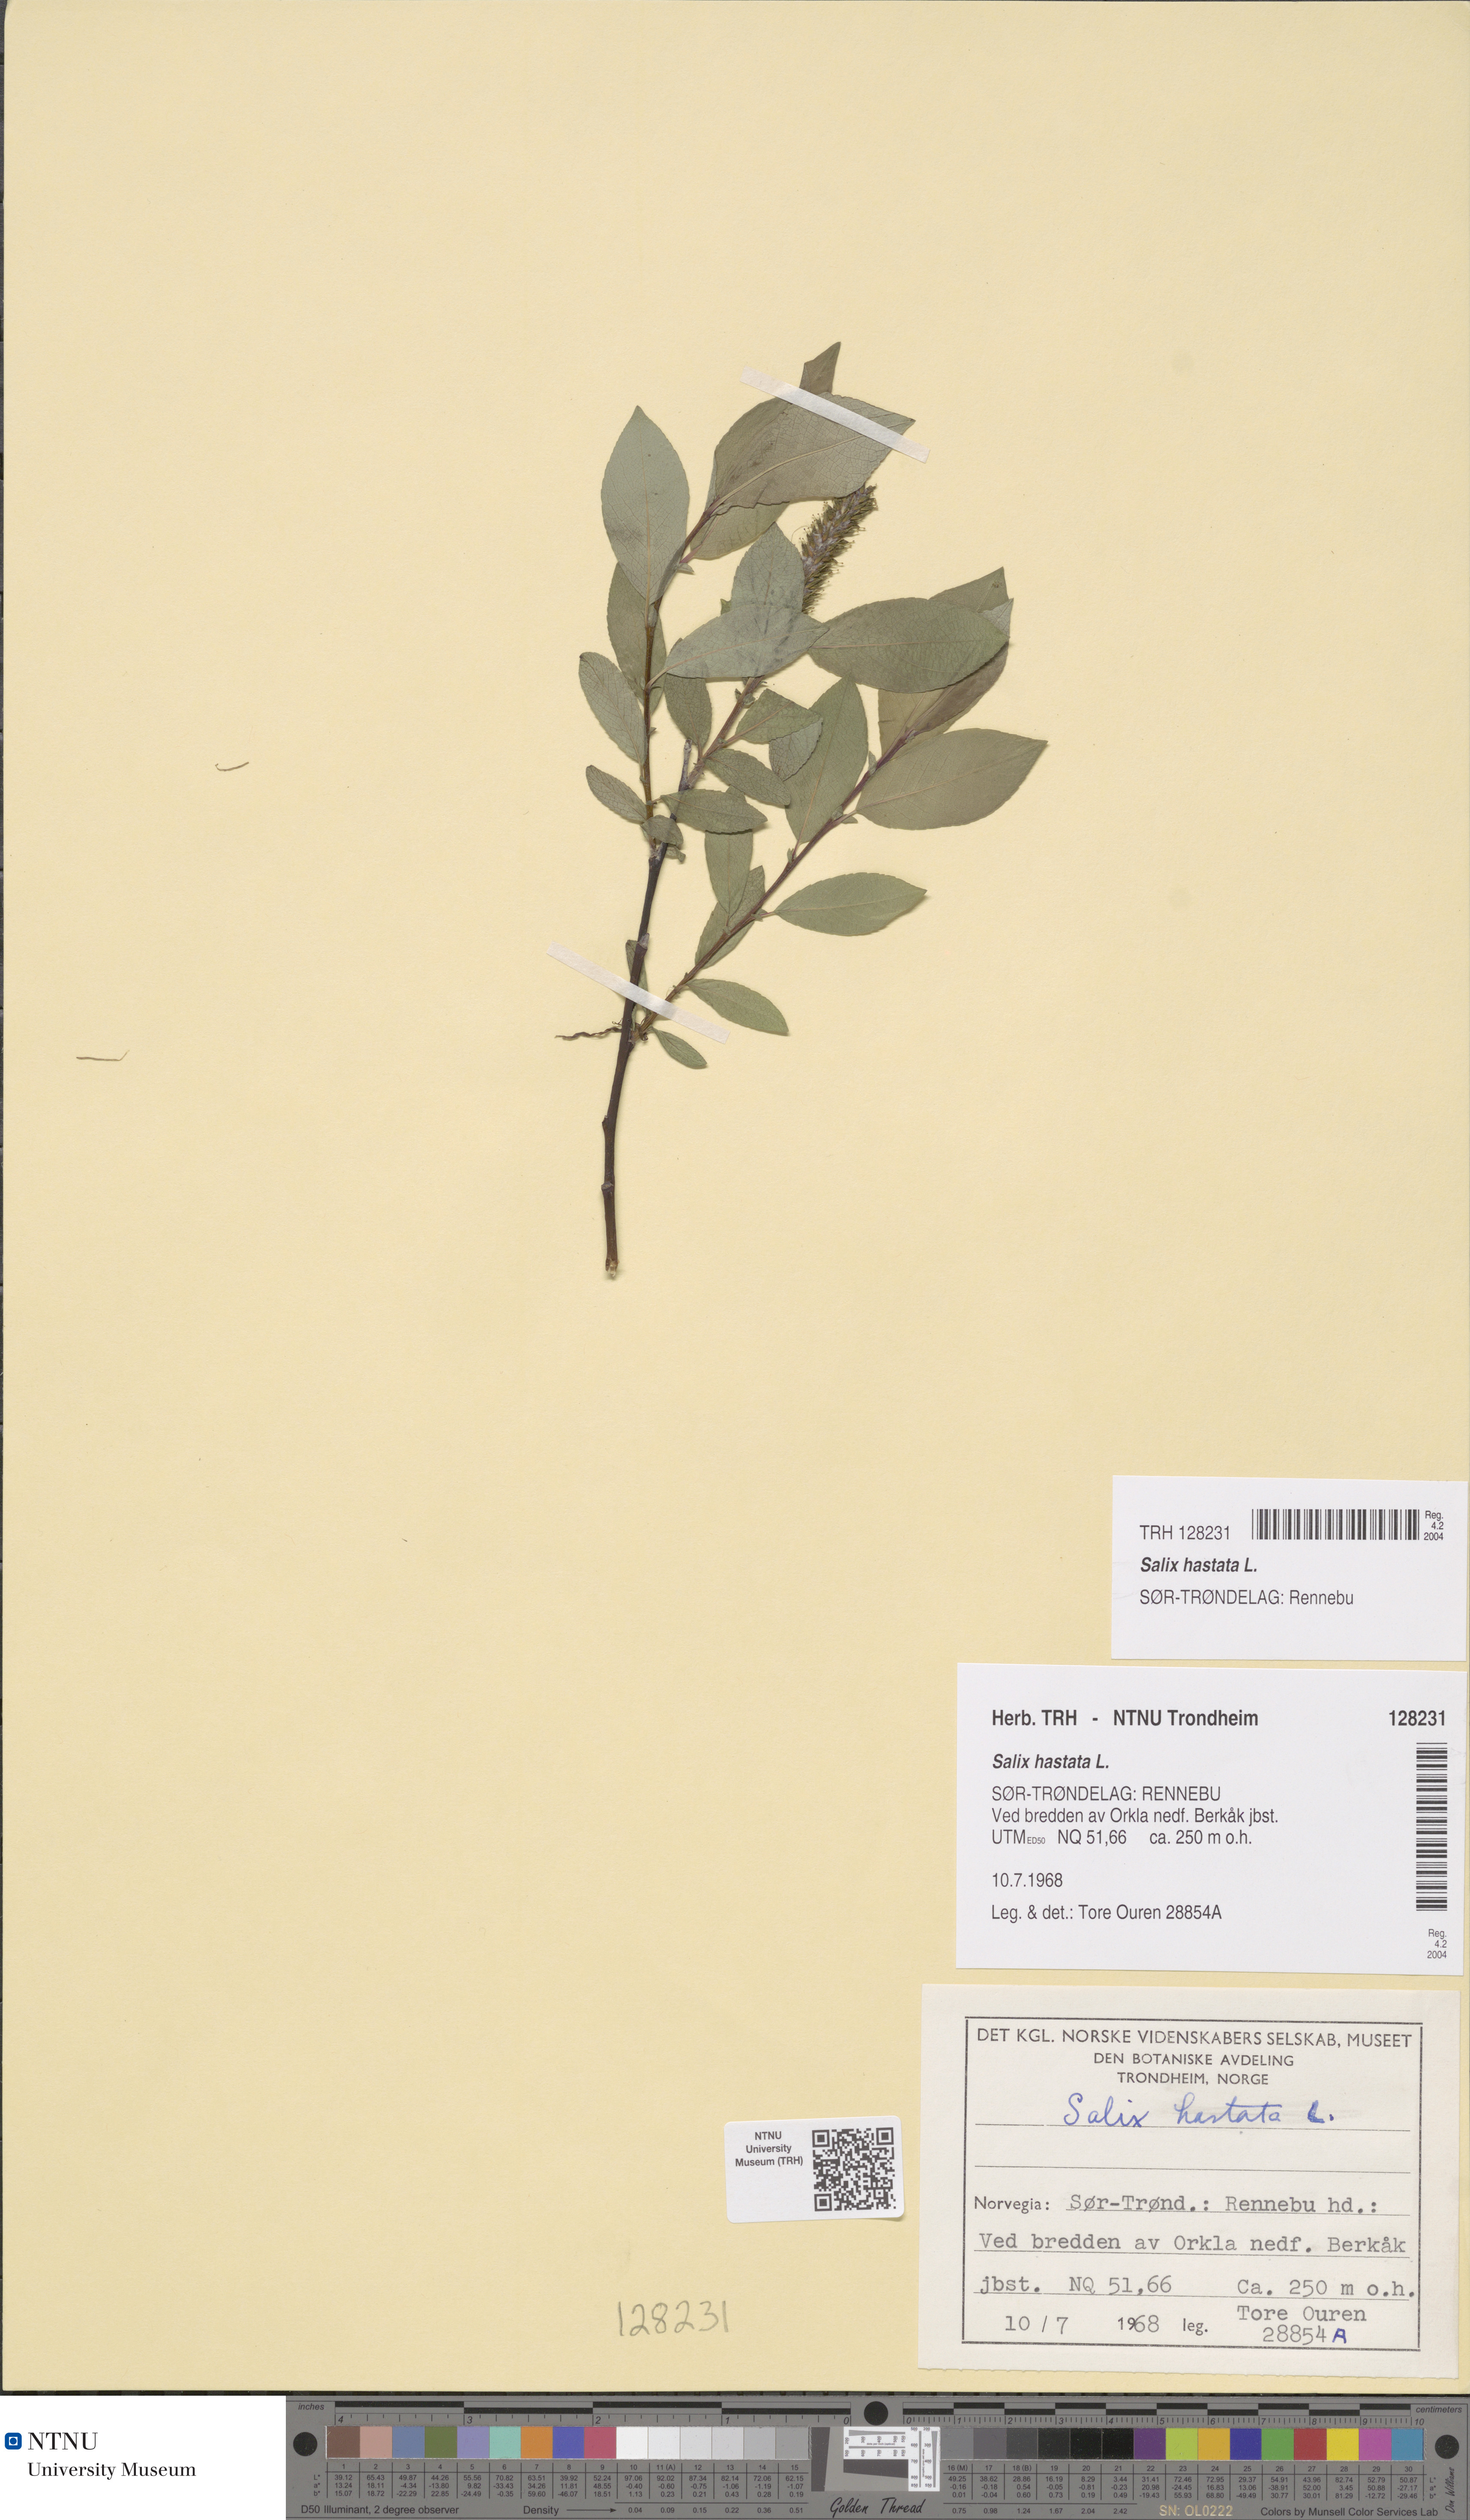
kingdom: Plantae
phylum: Tracheophyta
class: Magnoliopsida
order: Malpighiales
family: Salicaceae
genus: Salix
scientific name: Salix hastata
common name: Halberd willow
